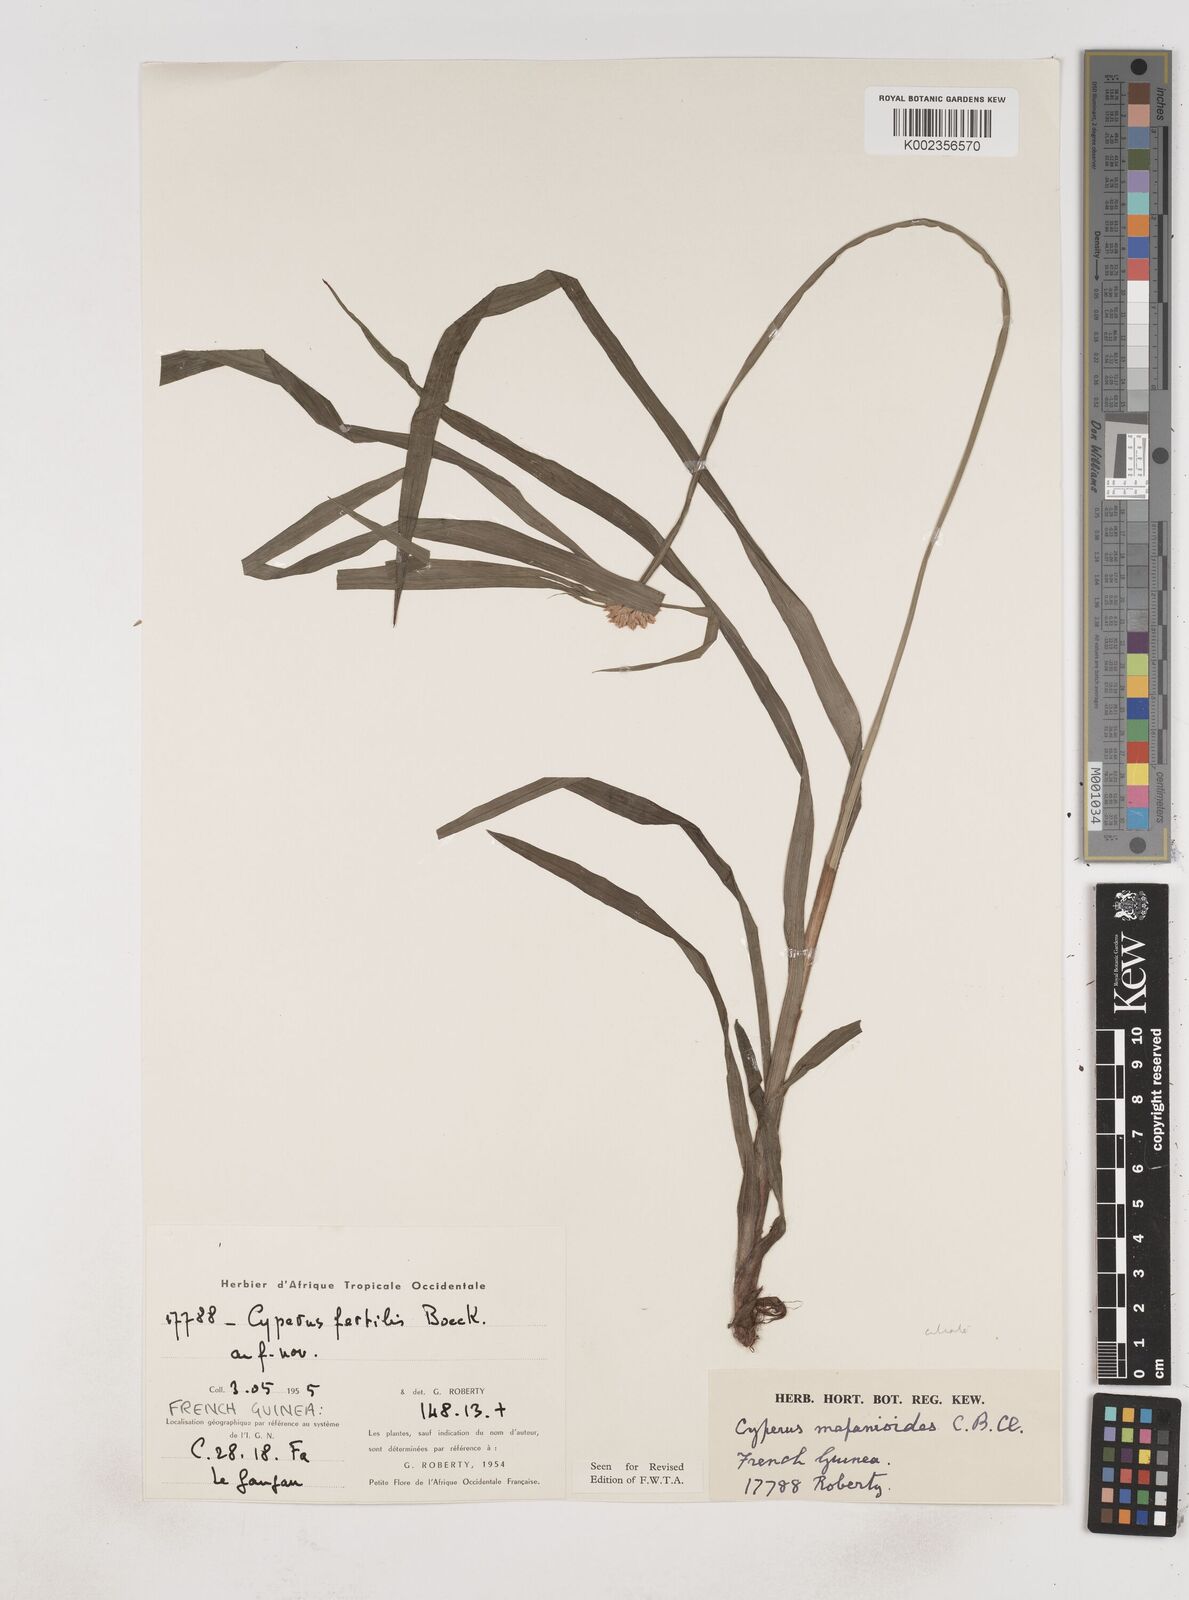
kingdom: Plantae
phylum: Tracheophyta
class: Liliopsida
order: Poales
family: Cyperaceae
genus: Cyperus
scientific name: Cyperus mapanioides
